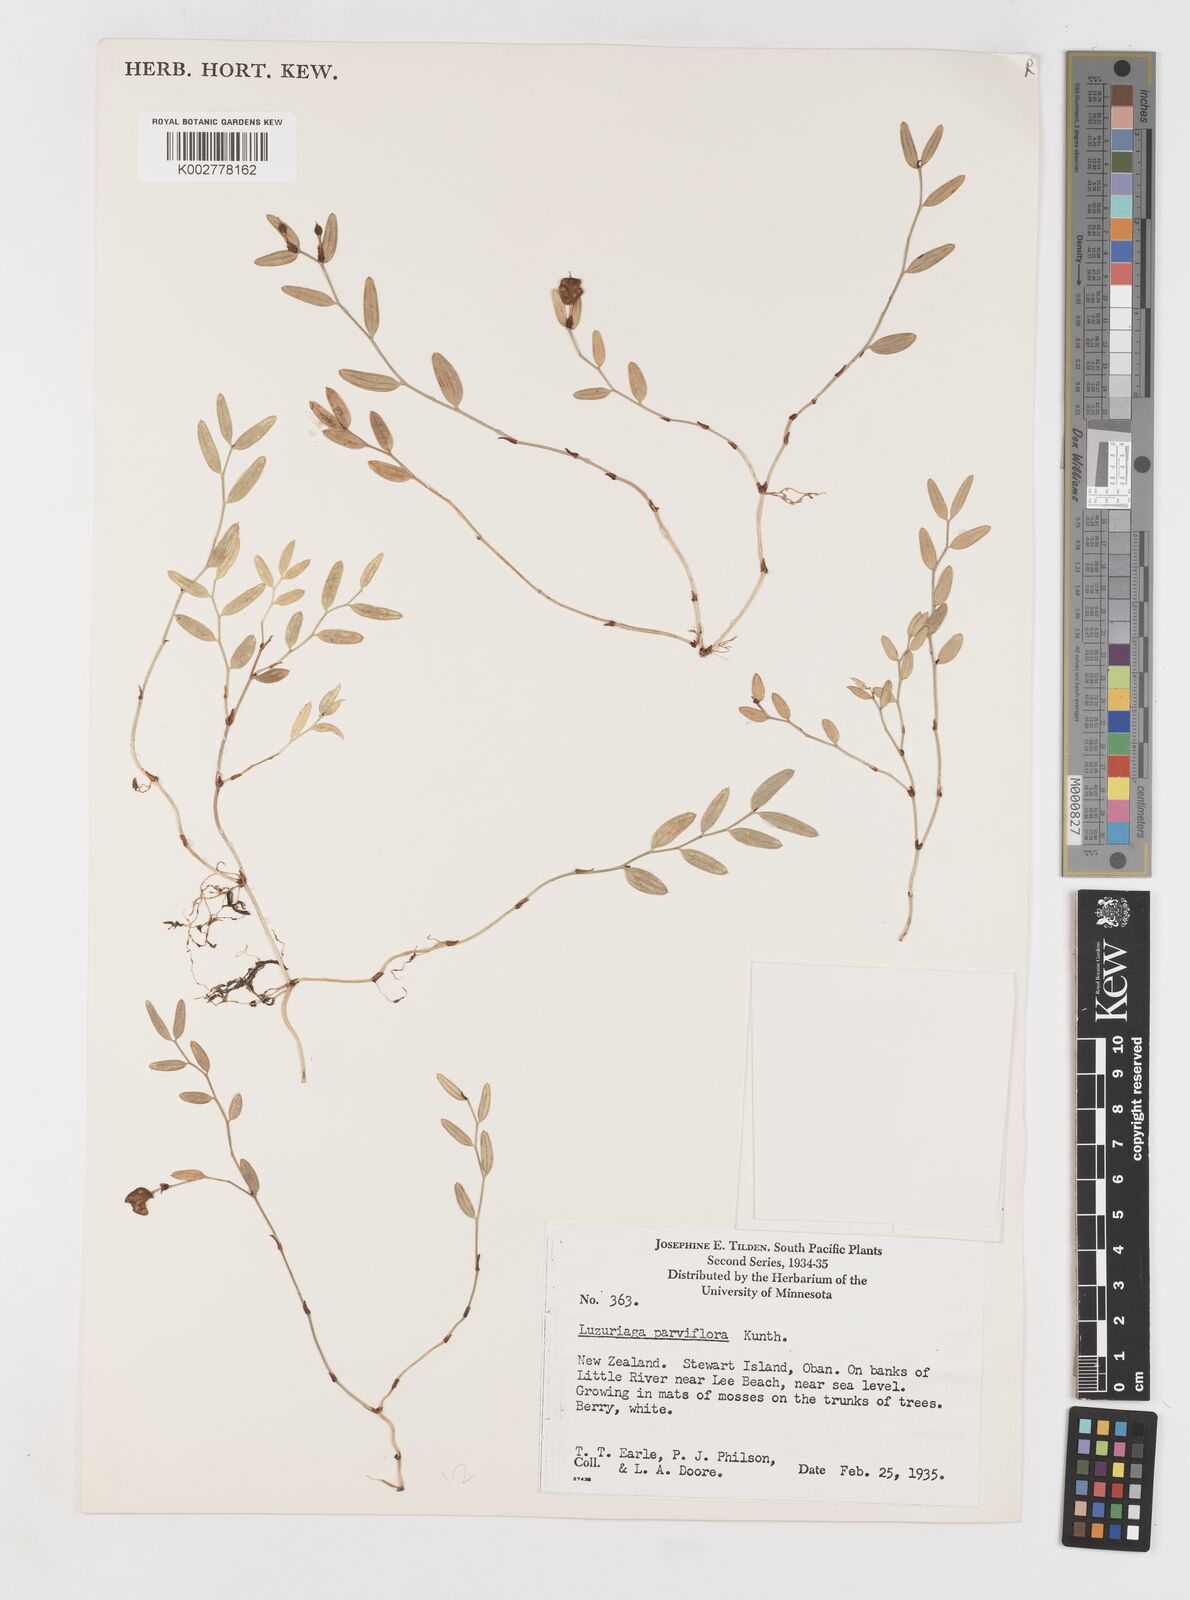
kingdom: Plantae
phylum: Tracheophyta
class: Liliopsida
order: Liliales
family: Alstroemeriaceae
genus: Luzuriaga
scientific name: Luzuriaga parviflora
